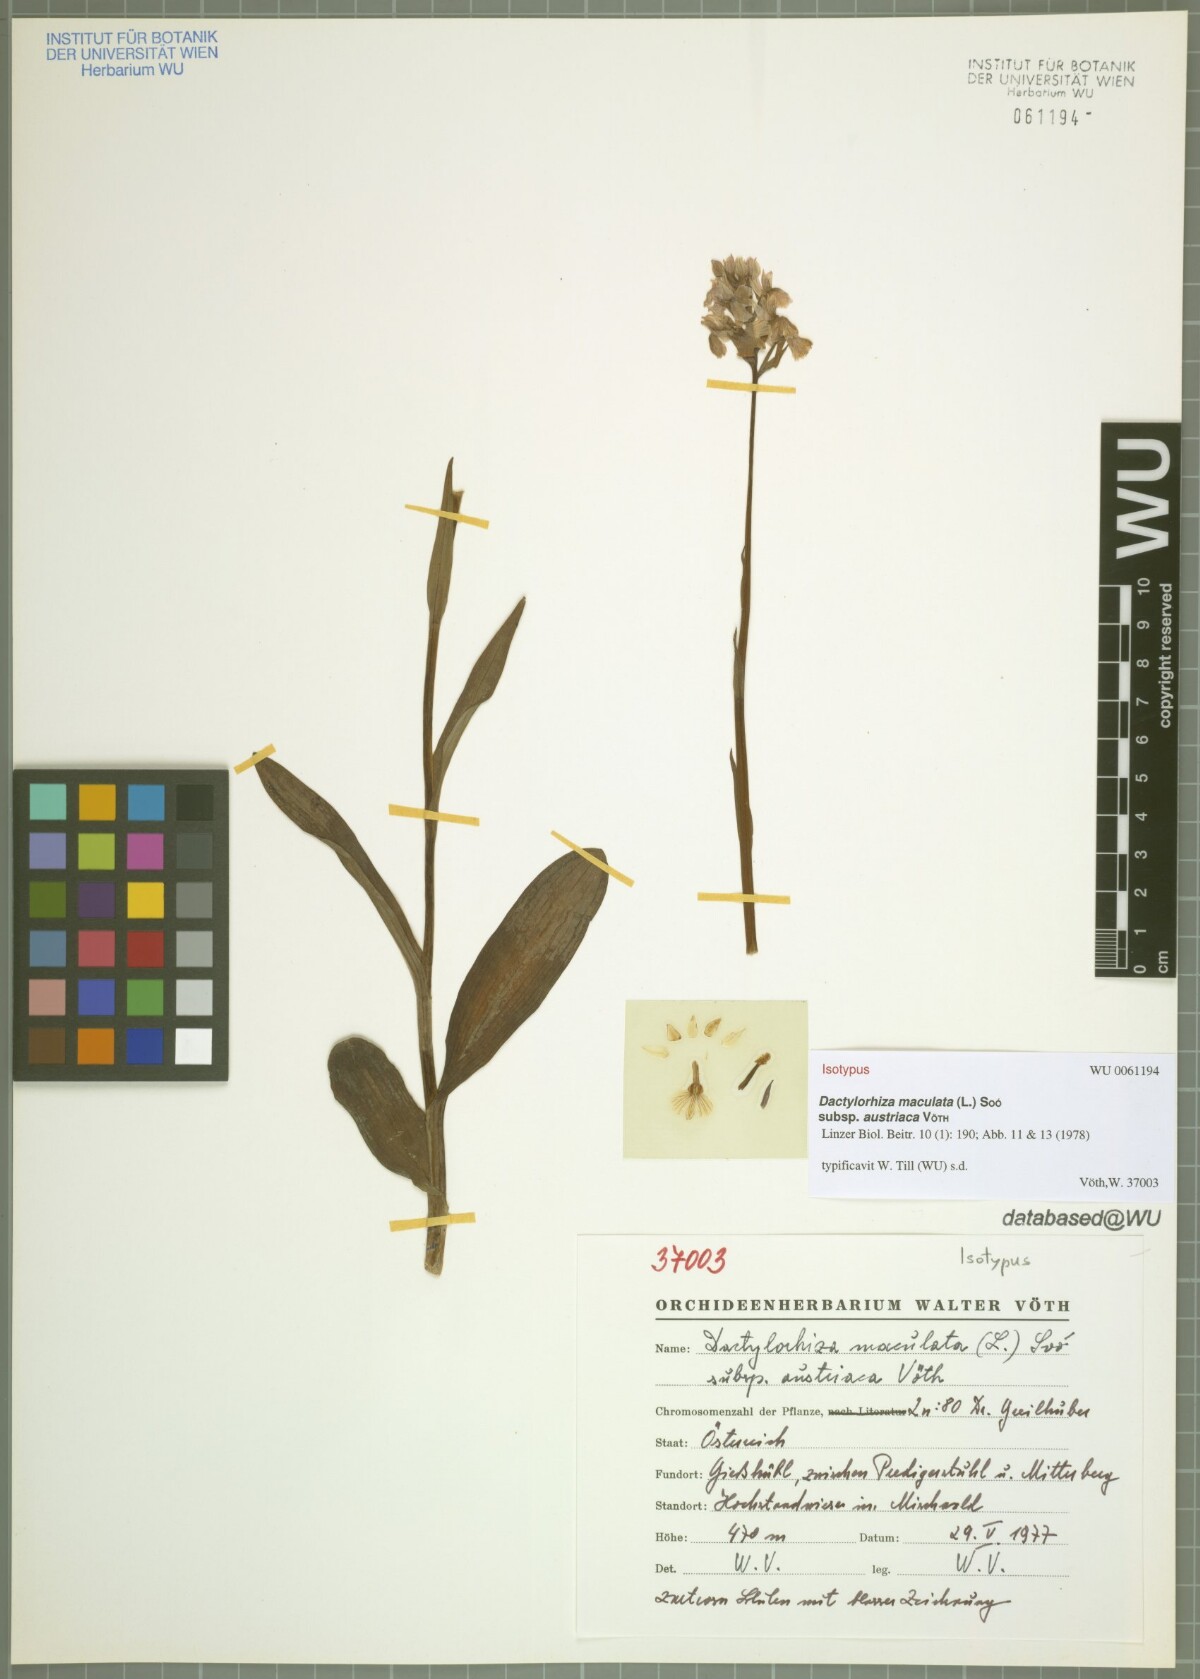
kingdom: Plantae
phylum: Tracheophyta
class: Liliopsida
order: Asparagales
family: Orchidaceae
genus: Dactylorhiza
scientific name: Dactylorhiza maculata
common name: Heath spotted-orchid
